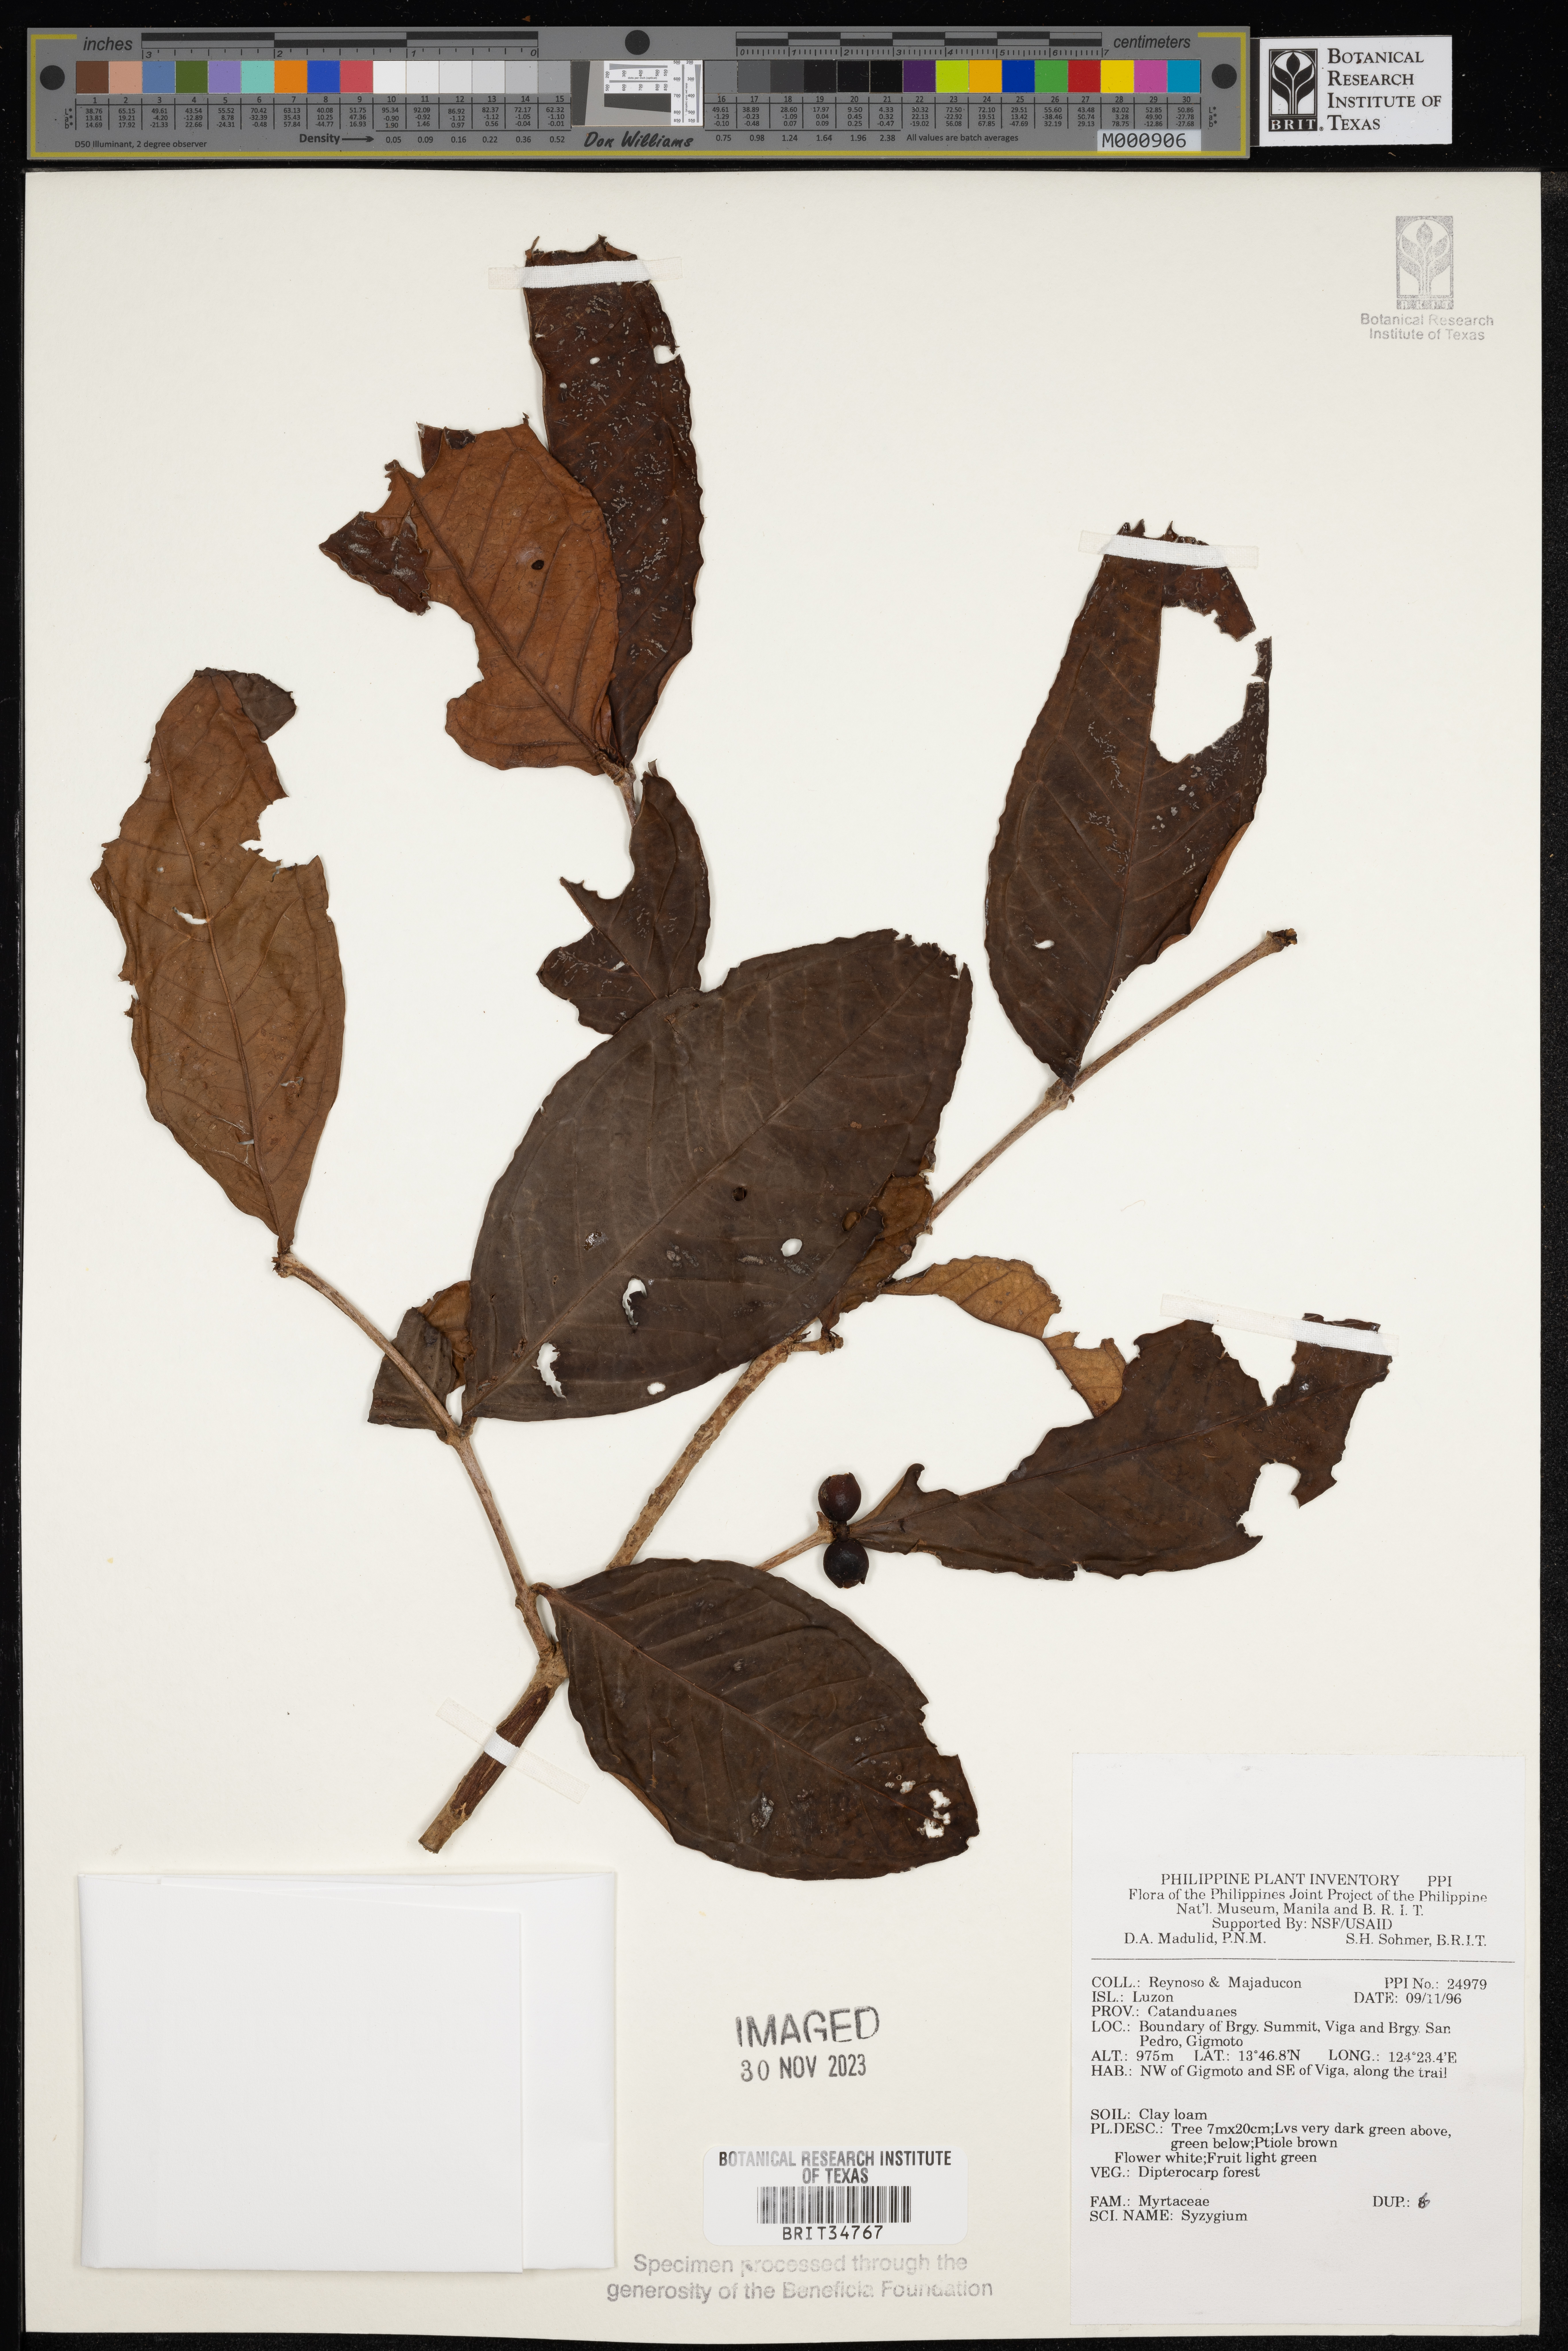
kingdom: Plantae
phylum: Tracheophyta
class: Magnoliopsida
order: Myrtales
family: Myrtaceae
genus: Syzygium
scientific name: Syzygium
